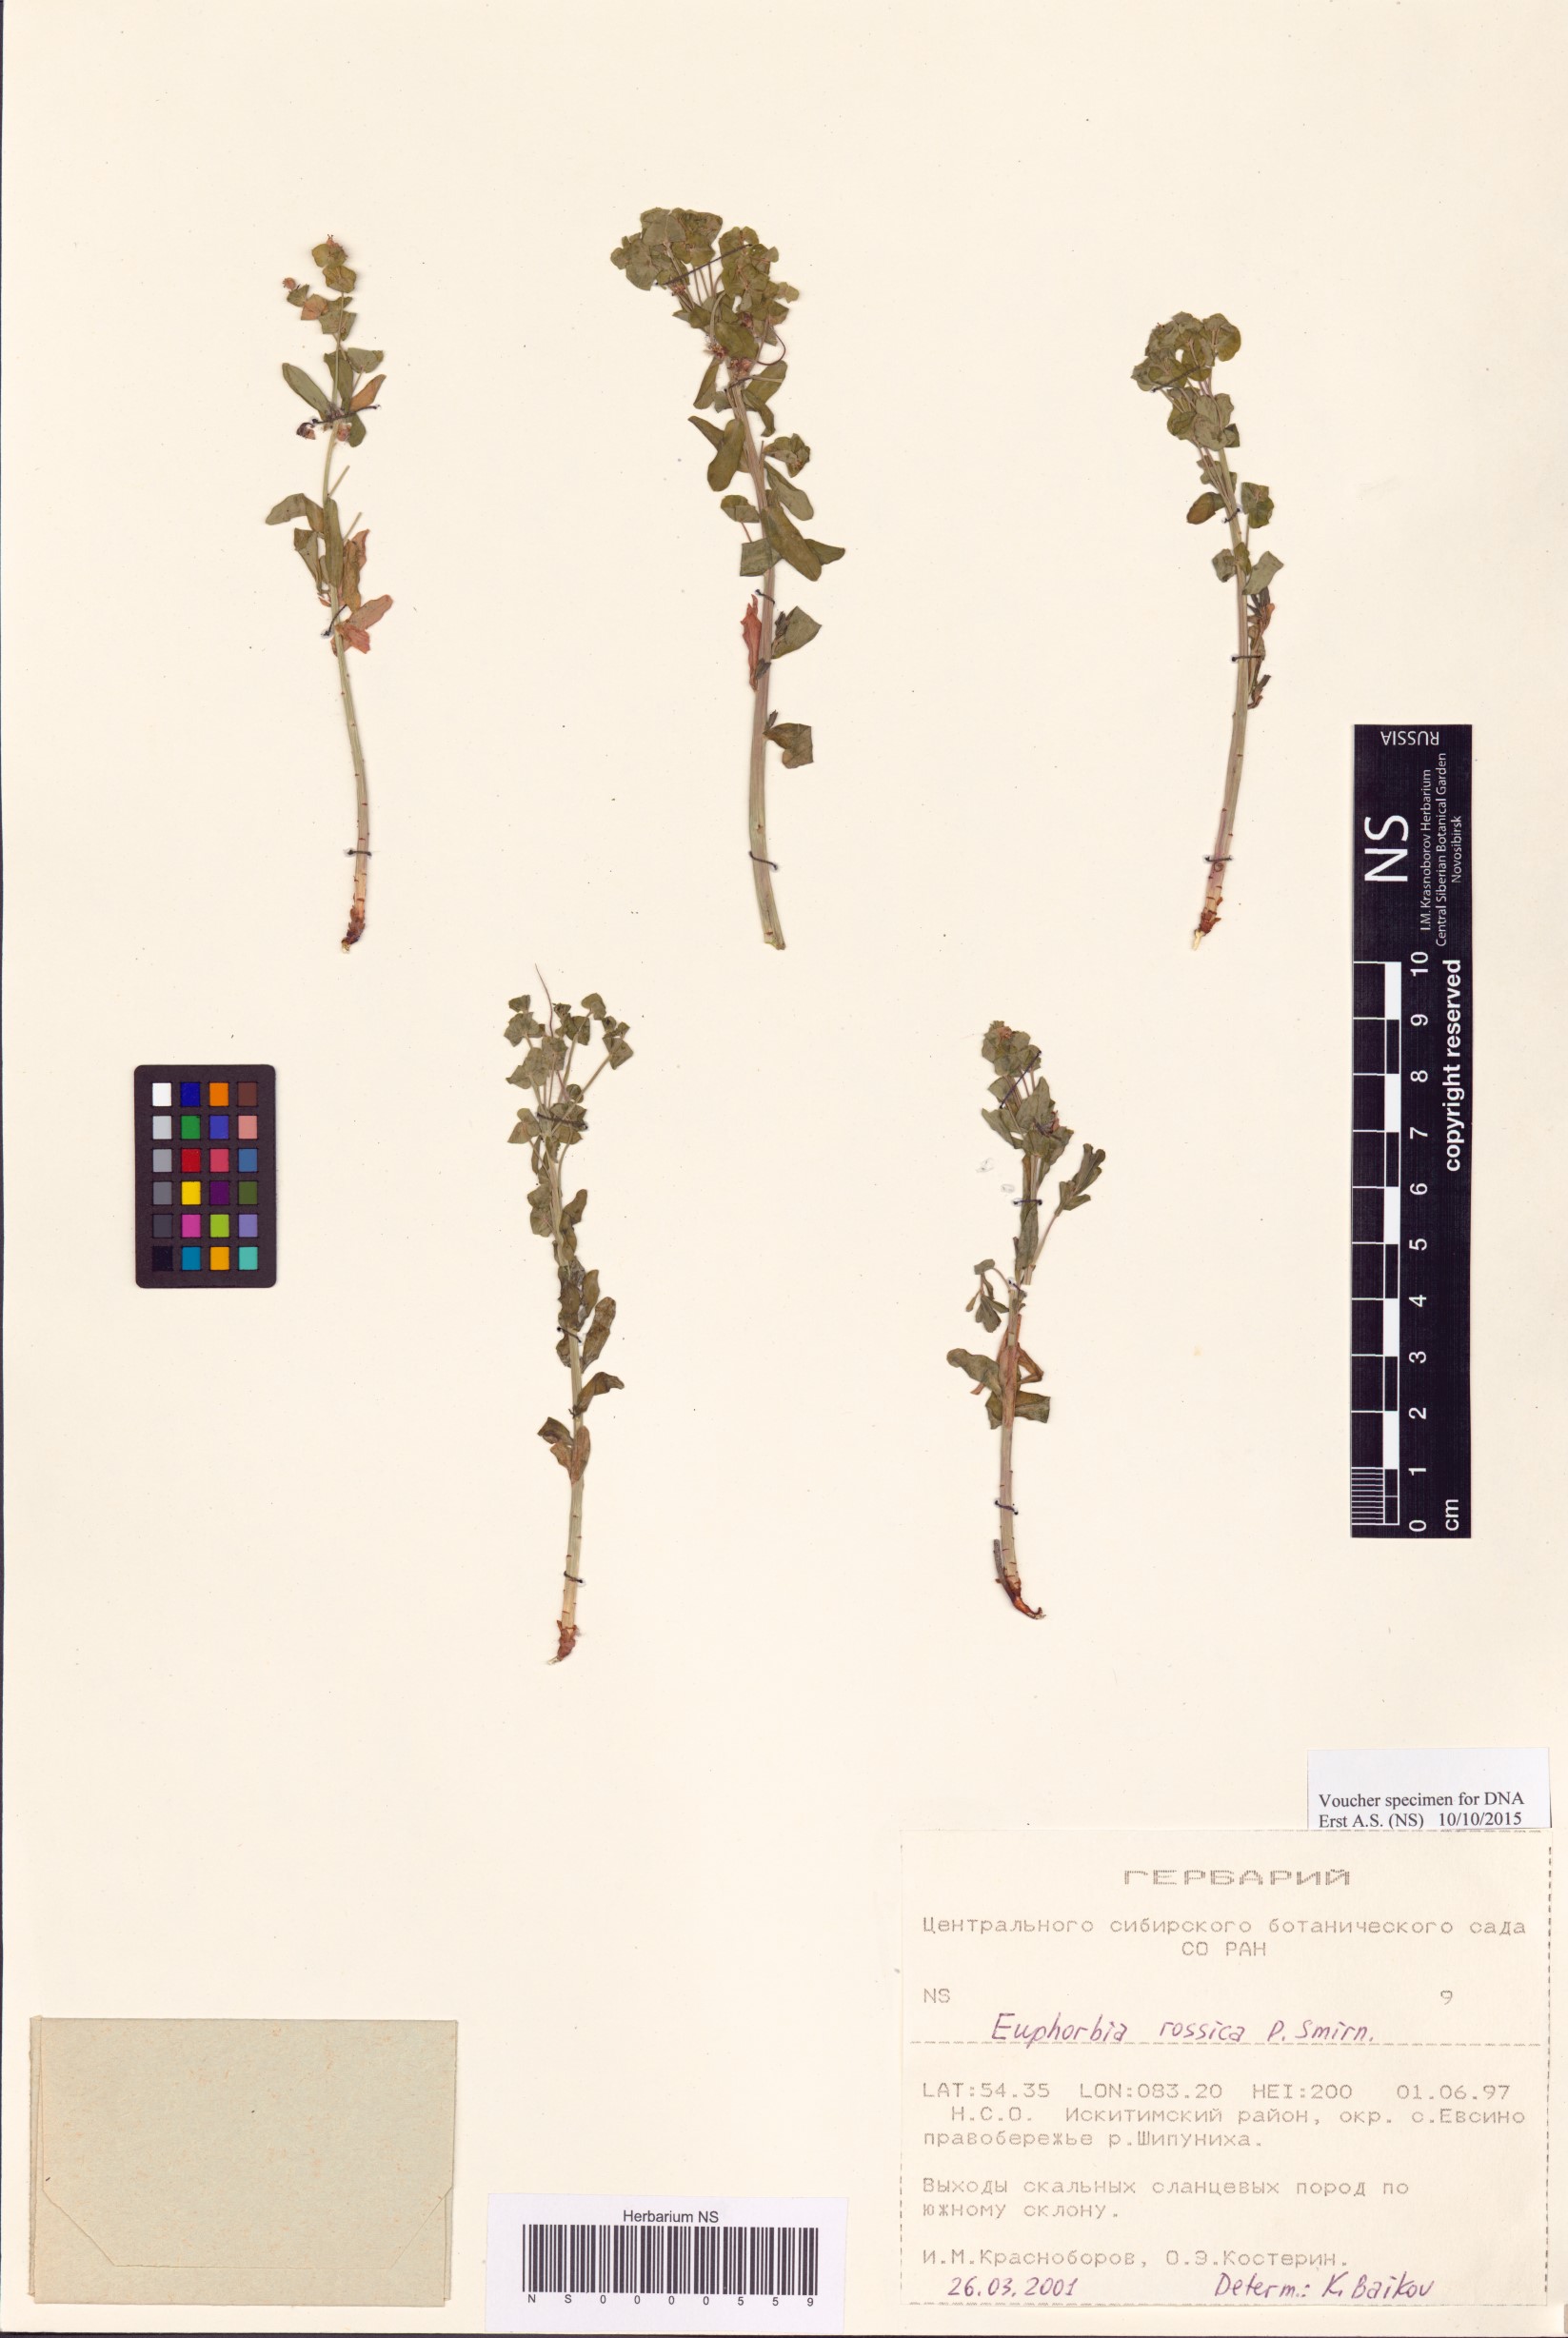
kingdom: Plantae
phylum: Tracheophyta
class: Magnoliopsida
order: Malpighiales
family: Euphorbiaceae
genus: Euphorbia
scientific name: Euphorbia esula
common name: Leafy spurge
